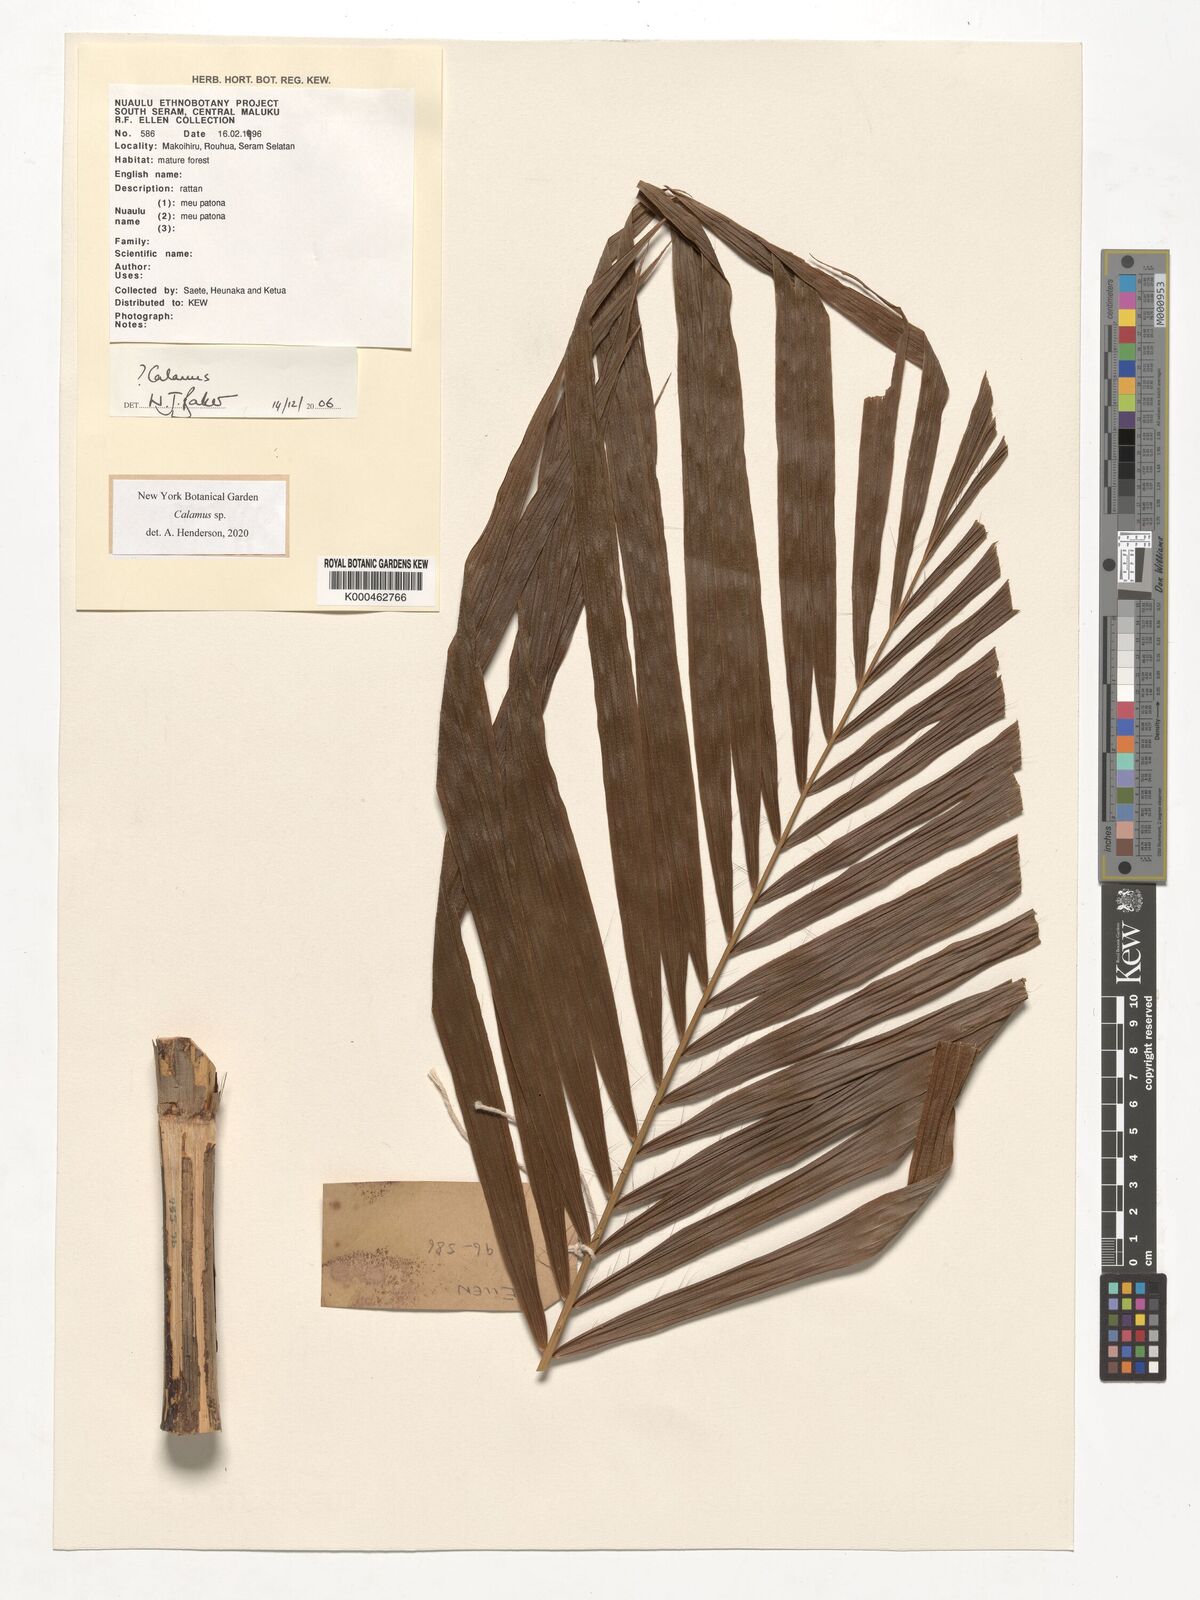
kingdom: Plantae
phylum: Tracheophyta
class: Liliopsida
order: Arecales
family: Arecaceae
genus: Calamus
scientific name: Calamus
